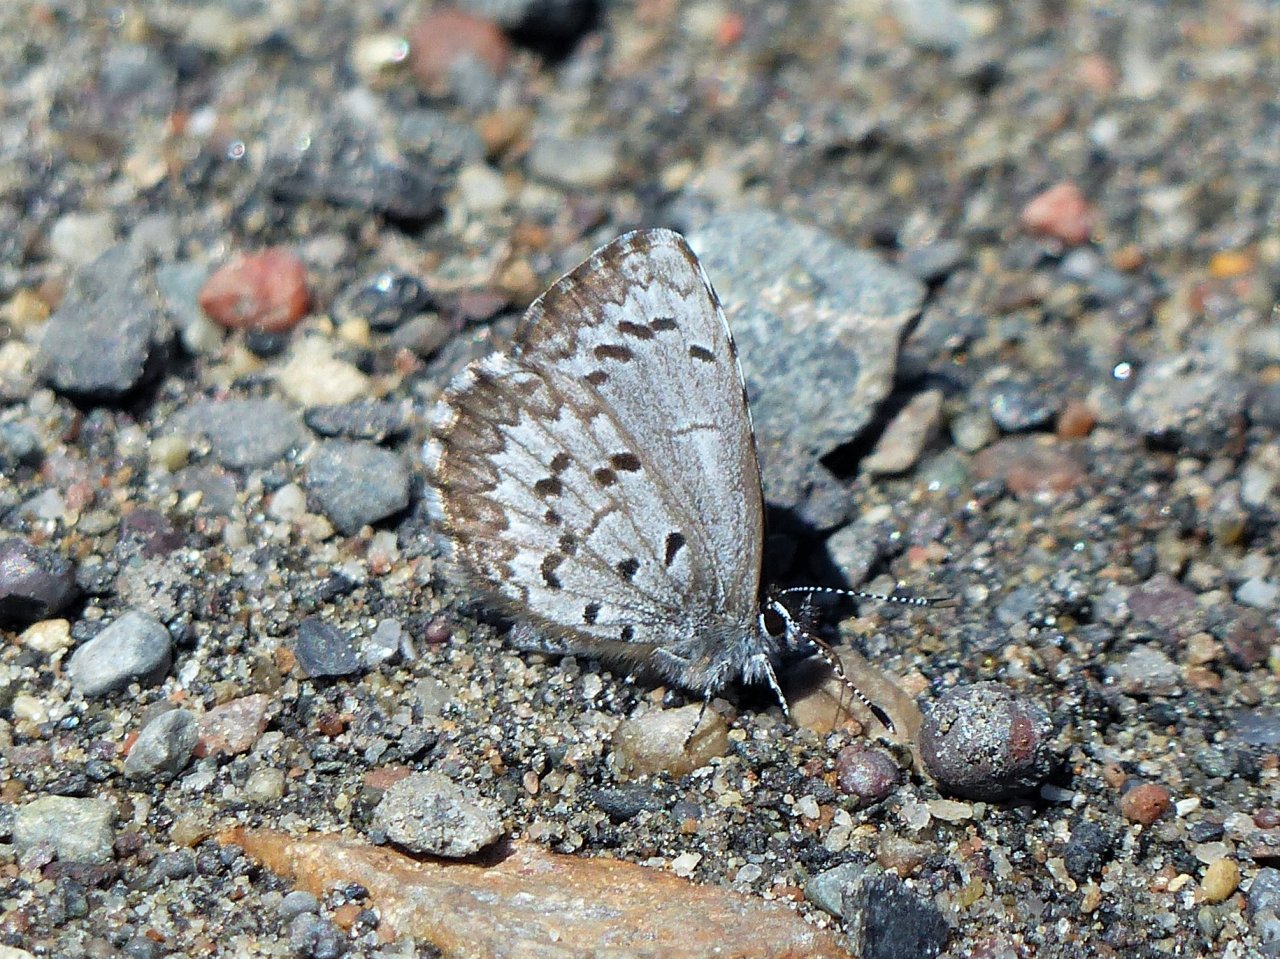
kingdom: Animalia
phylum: Arthropoda
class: Insecta
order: Lepidoptera
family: Lycaenidae
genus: Celastrina
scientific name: Celastrina lucia
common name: Northern Spring Azure
